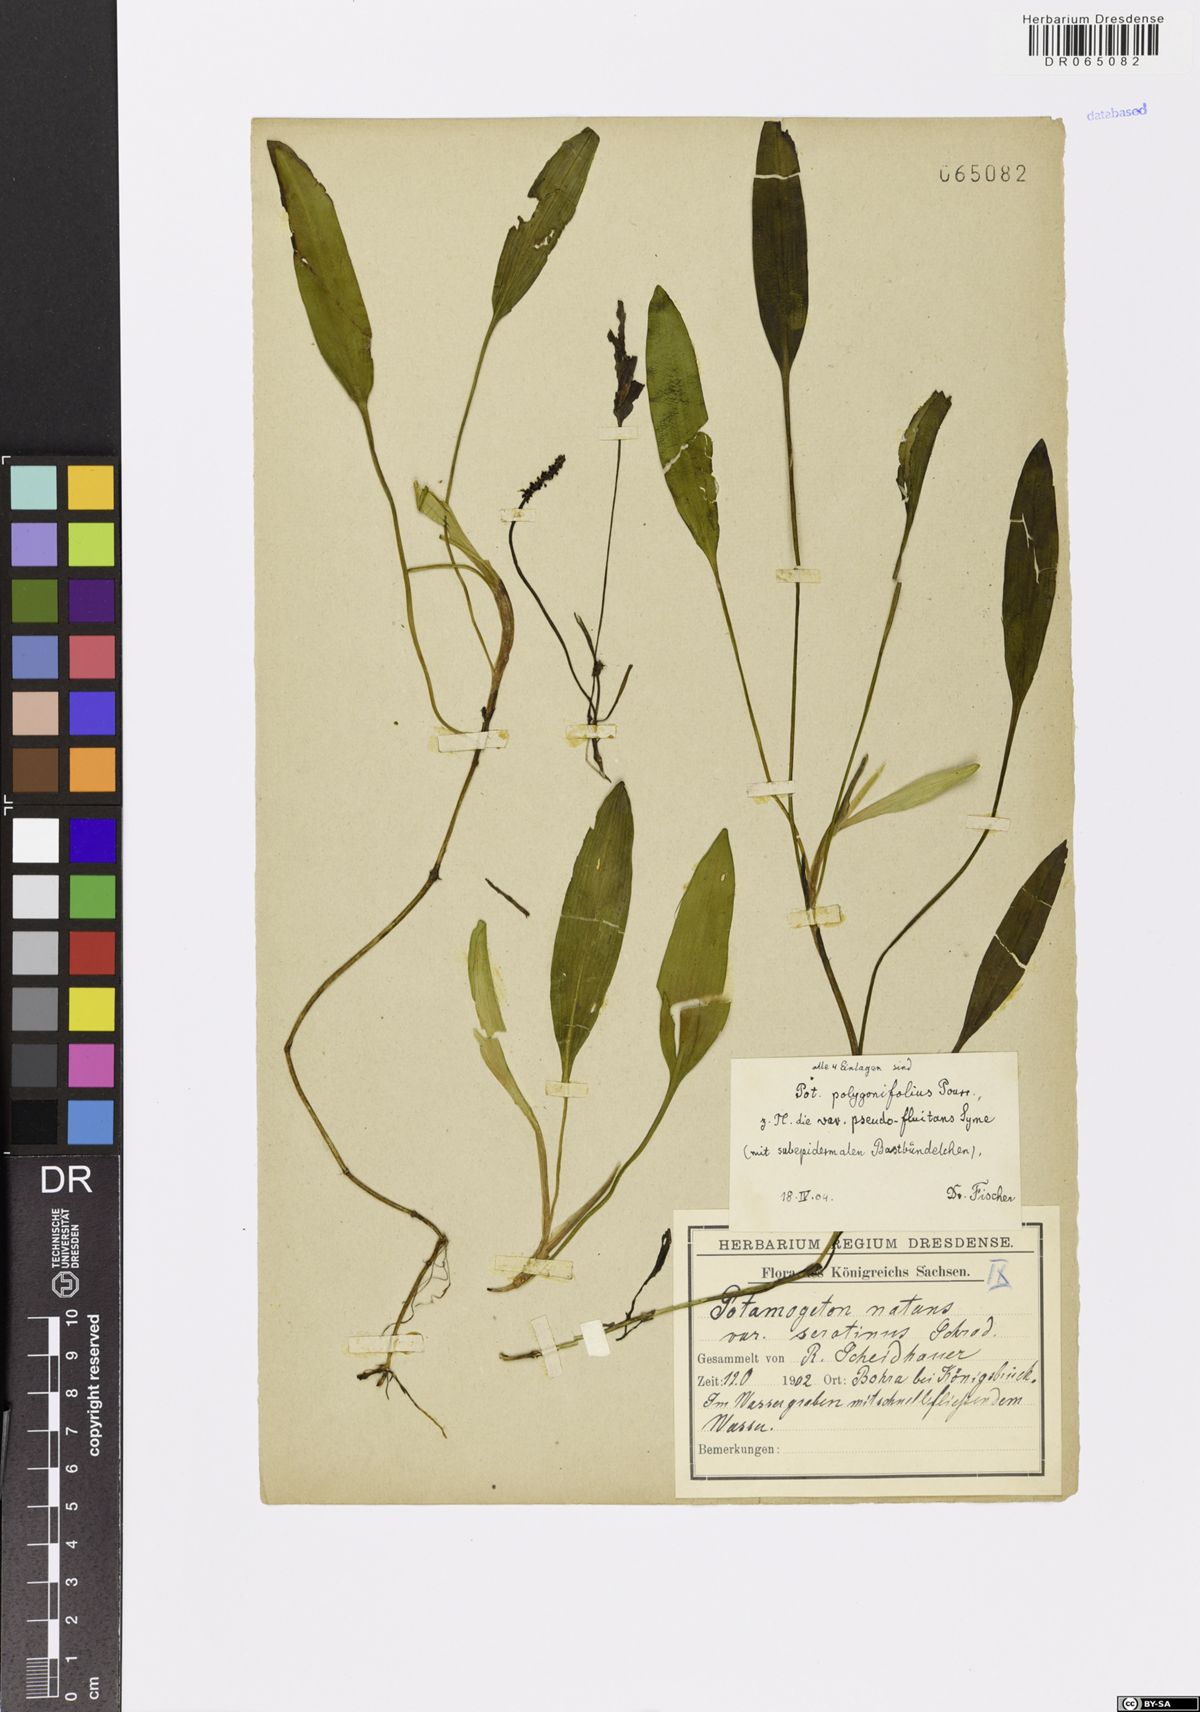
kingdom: Plantae
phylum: Tracheophyta
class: Liliopsida
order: Alismatales
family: Potamogetonaceae
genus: Potamogeton
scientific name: Potamogeton polygonifolius
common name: Bog pondweed
